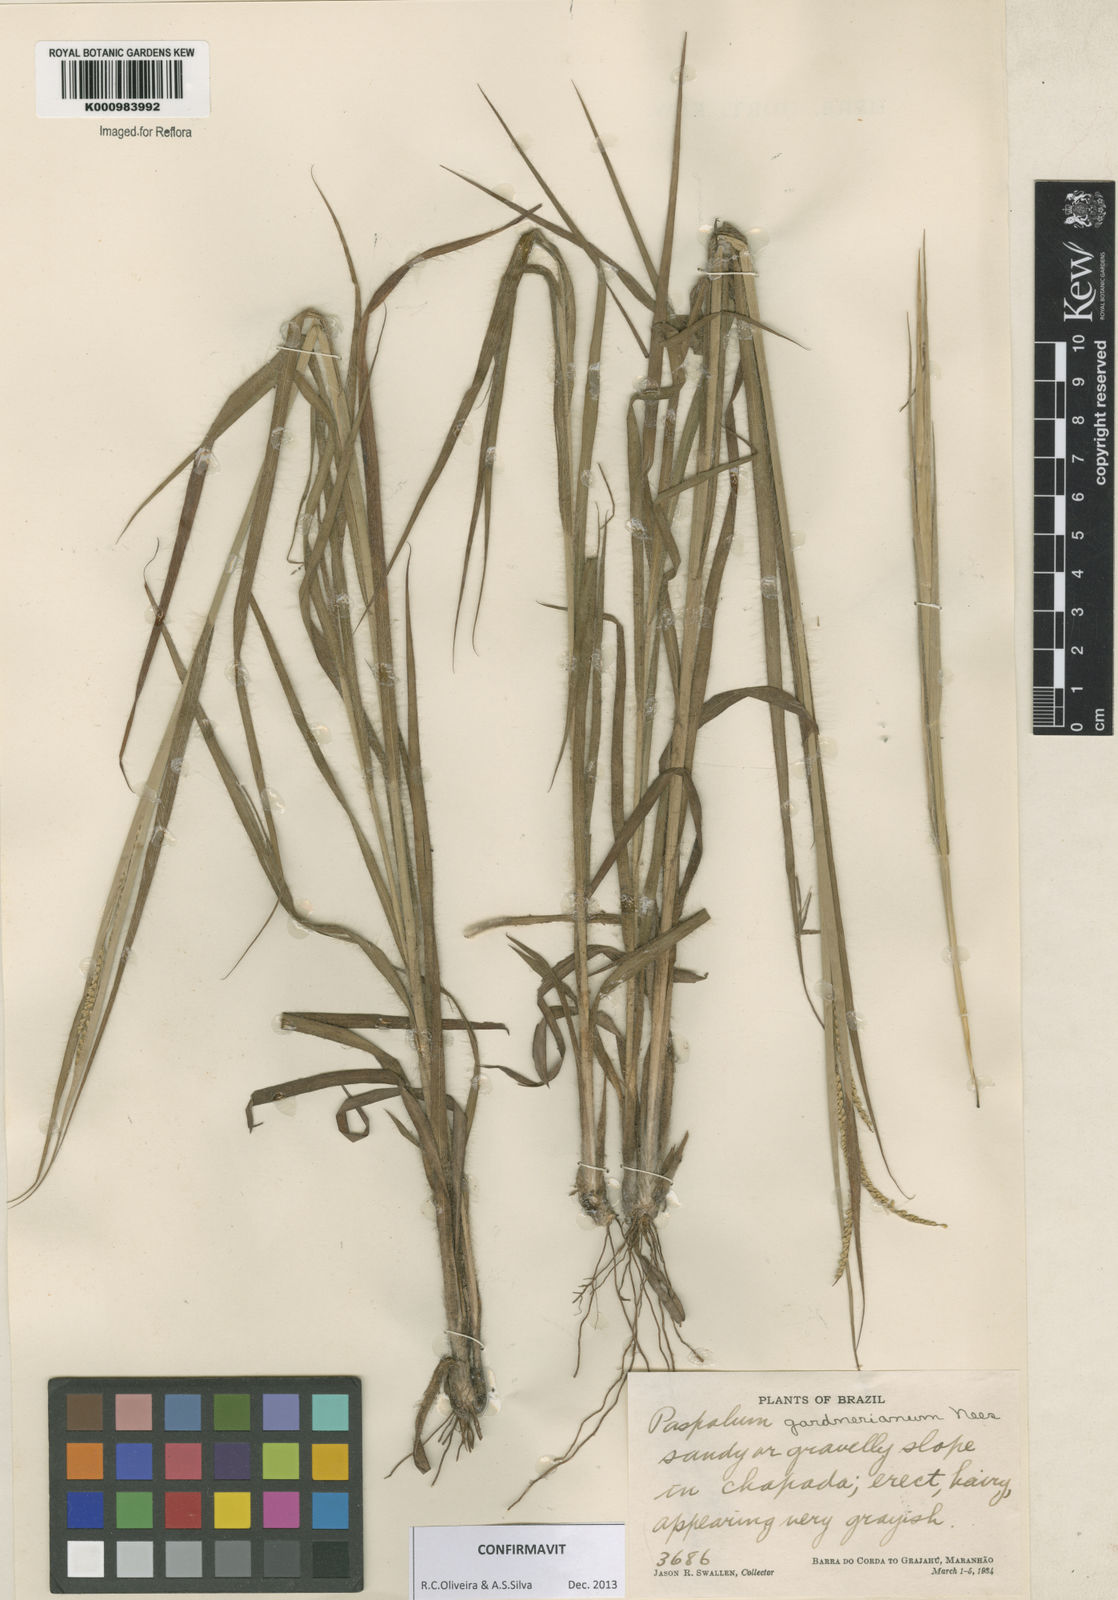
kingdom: Plantae
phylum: Tracheophyta
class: Liliopsida
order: Poales
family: Poaceae
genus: Paspalum
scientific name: Paspalum gardnerianum
